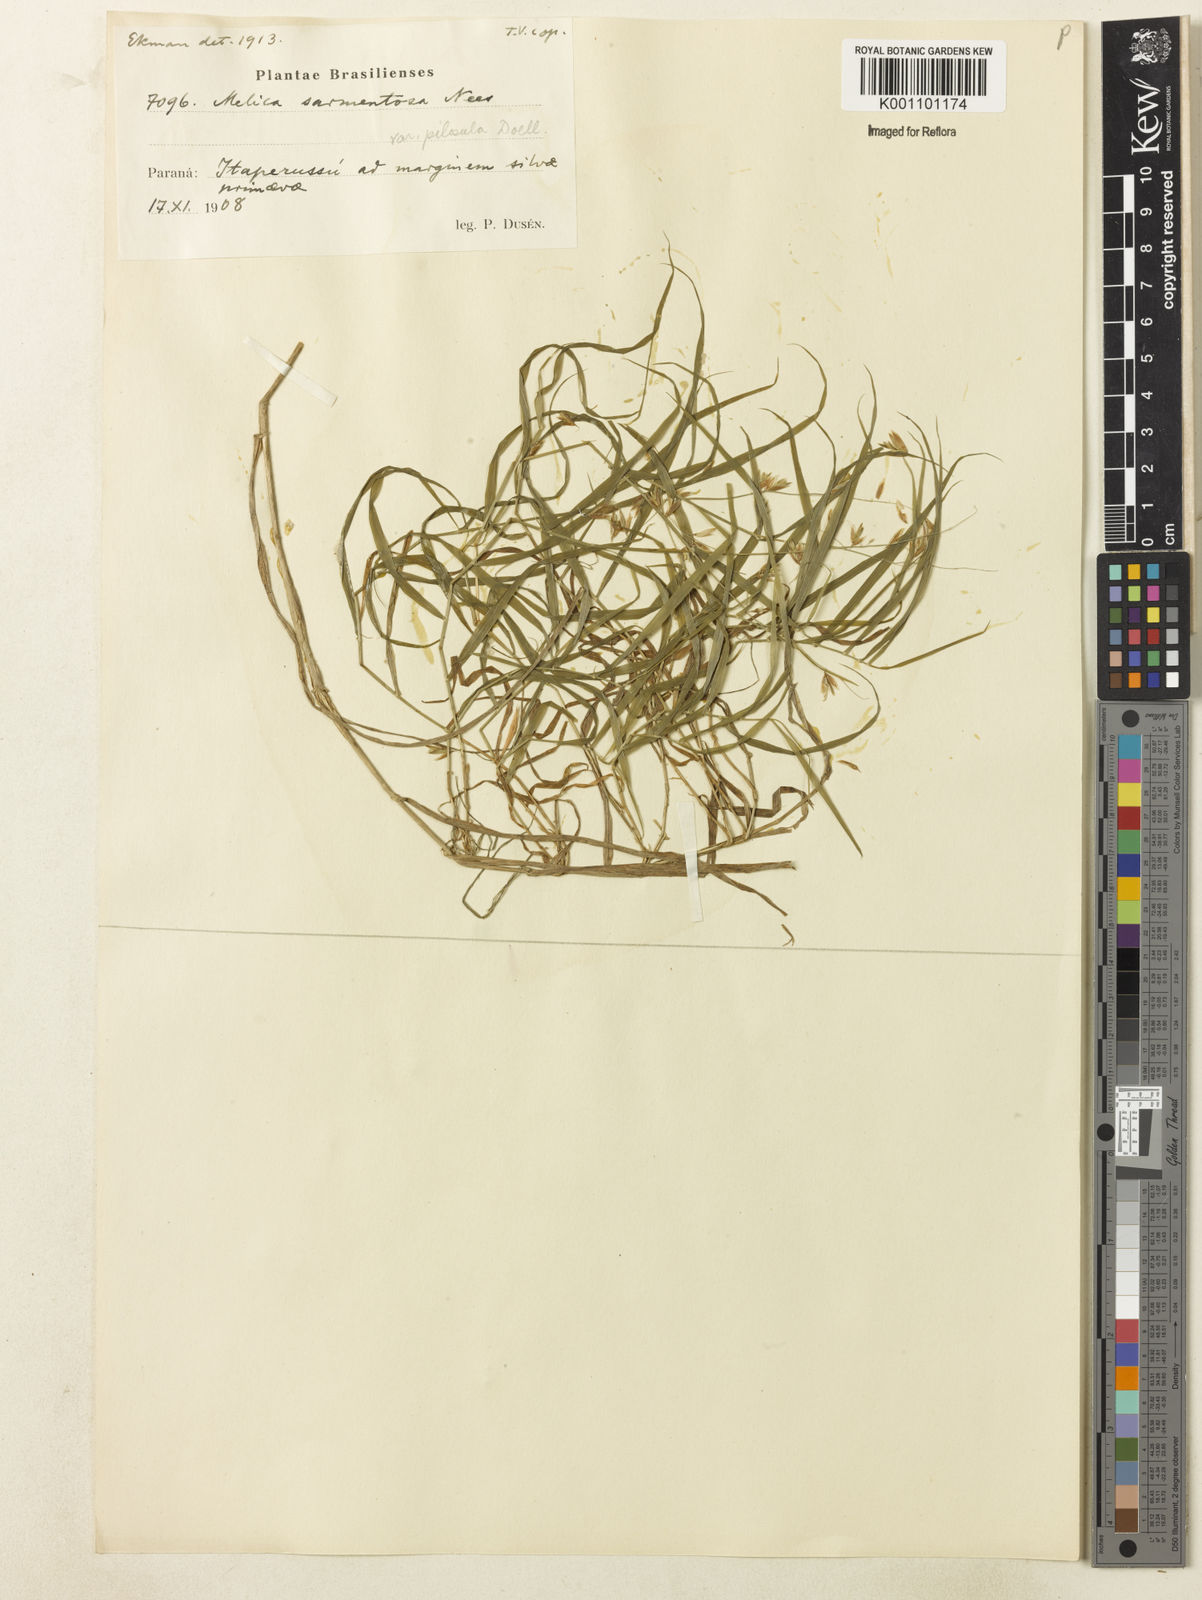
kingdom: Plantae
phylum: Tracheophyta
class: Liliopsida
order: Poales
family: Poaceae
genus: Melica
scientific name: Melica sarmentosa
